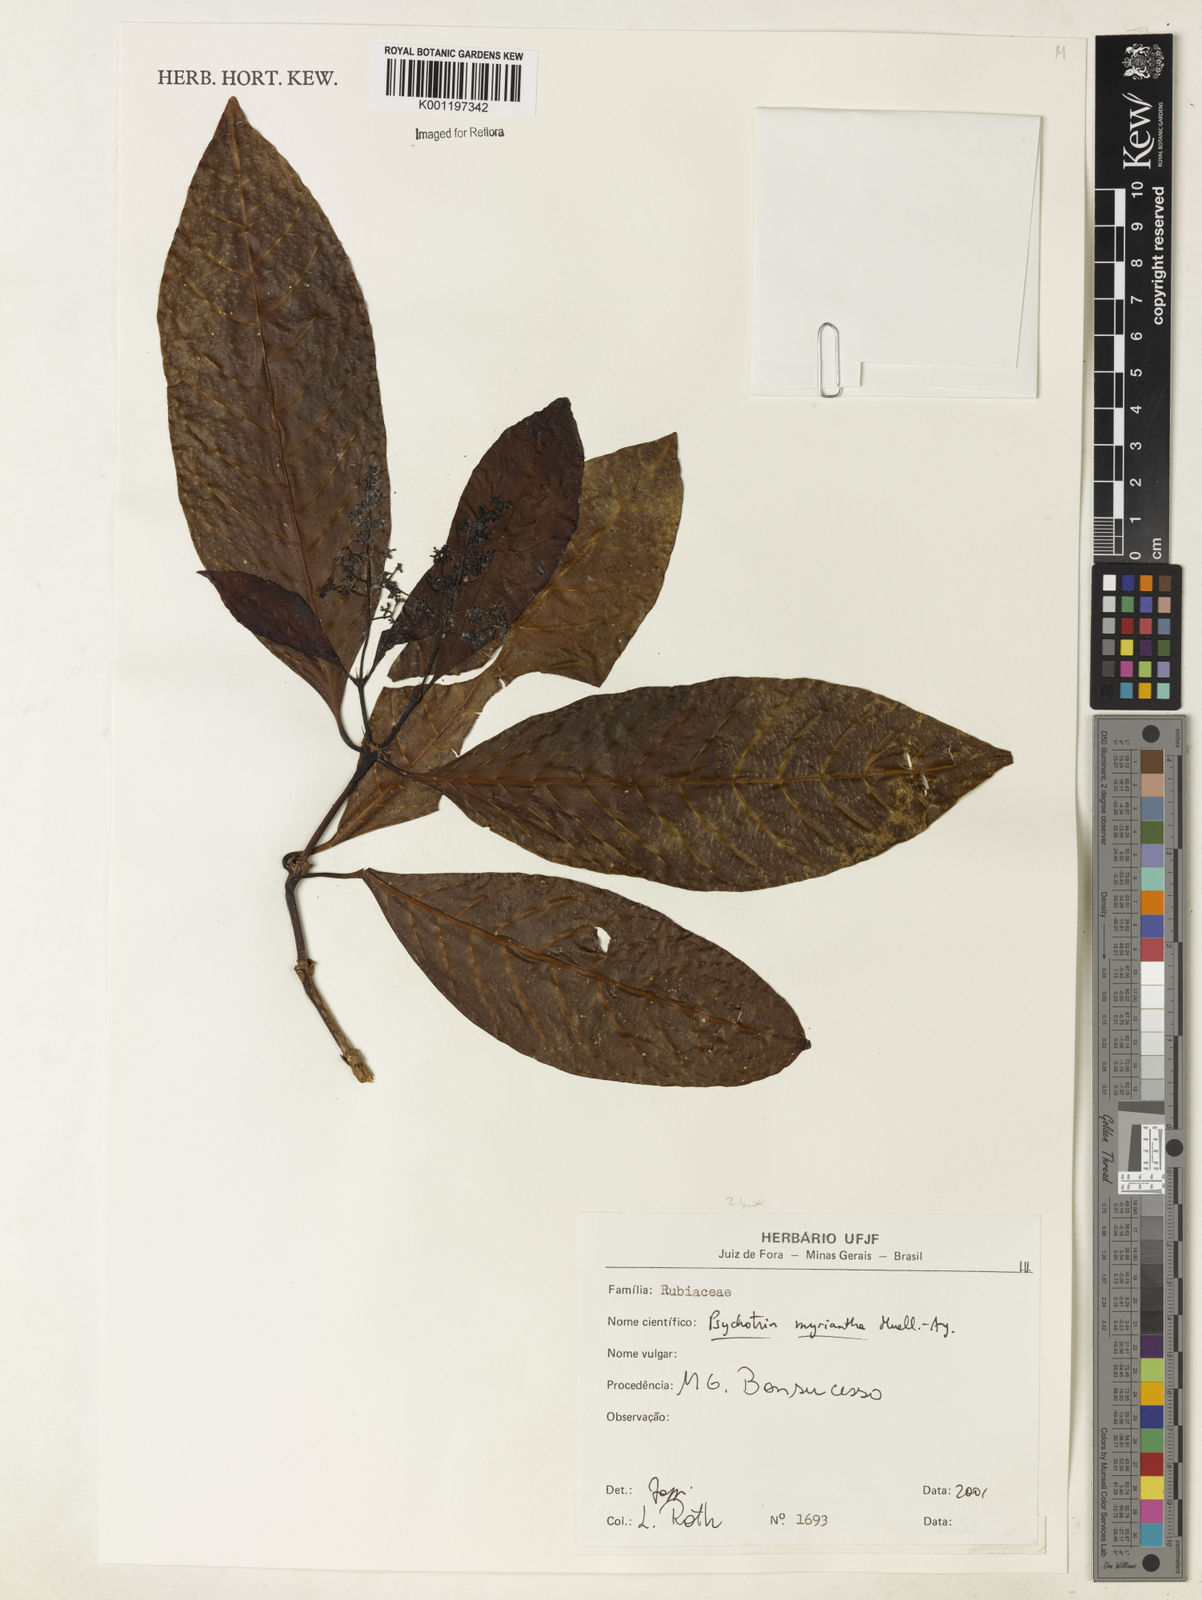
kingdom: Plantae
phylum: Tracheophyta
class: Magnoliopsida
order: Gentianales
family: Rubiaceae
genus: Psychotria
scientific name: Psychotria
